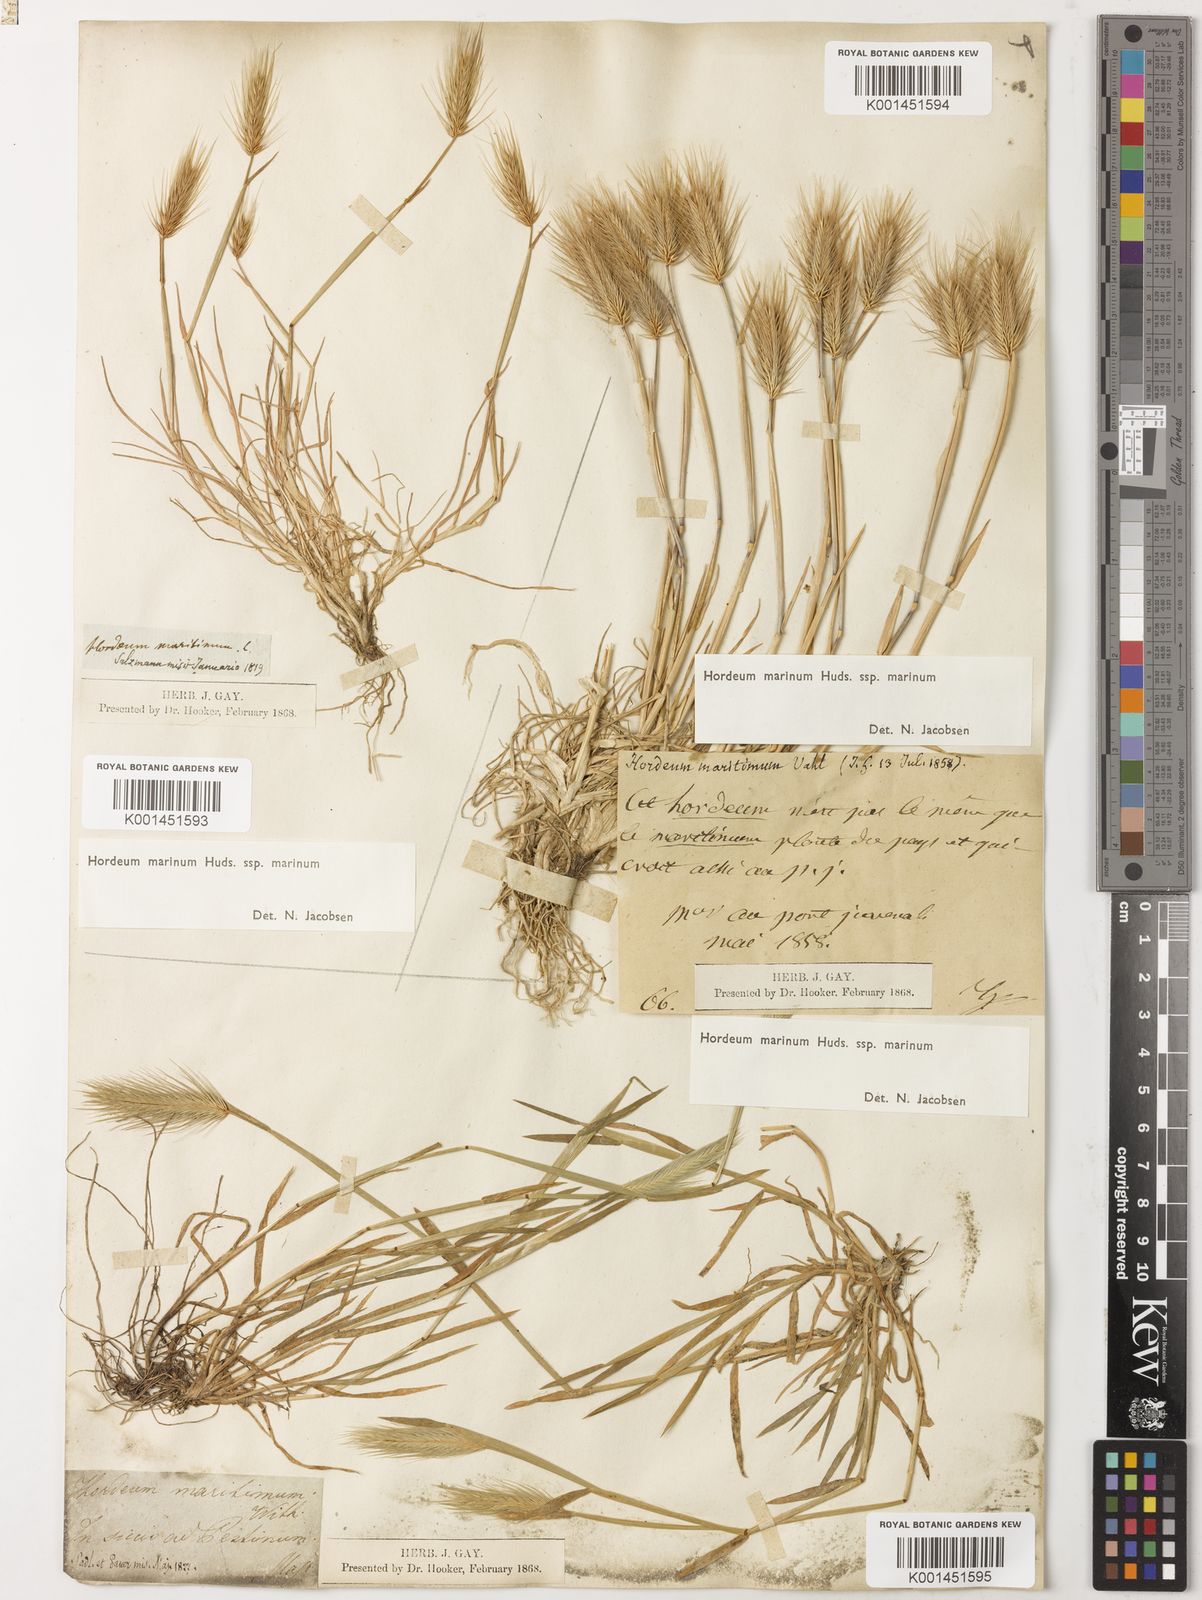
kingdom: Plantae
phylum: Tracheophyta
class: Liliopsida
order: Poales
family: Poaceae
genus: Hordeum
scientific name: Hordeum marinum
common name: Sea barley
